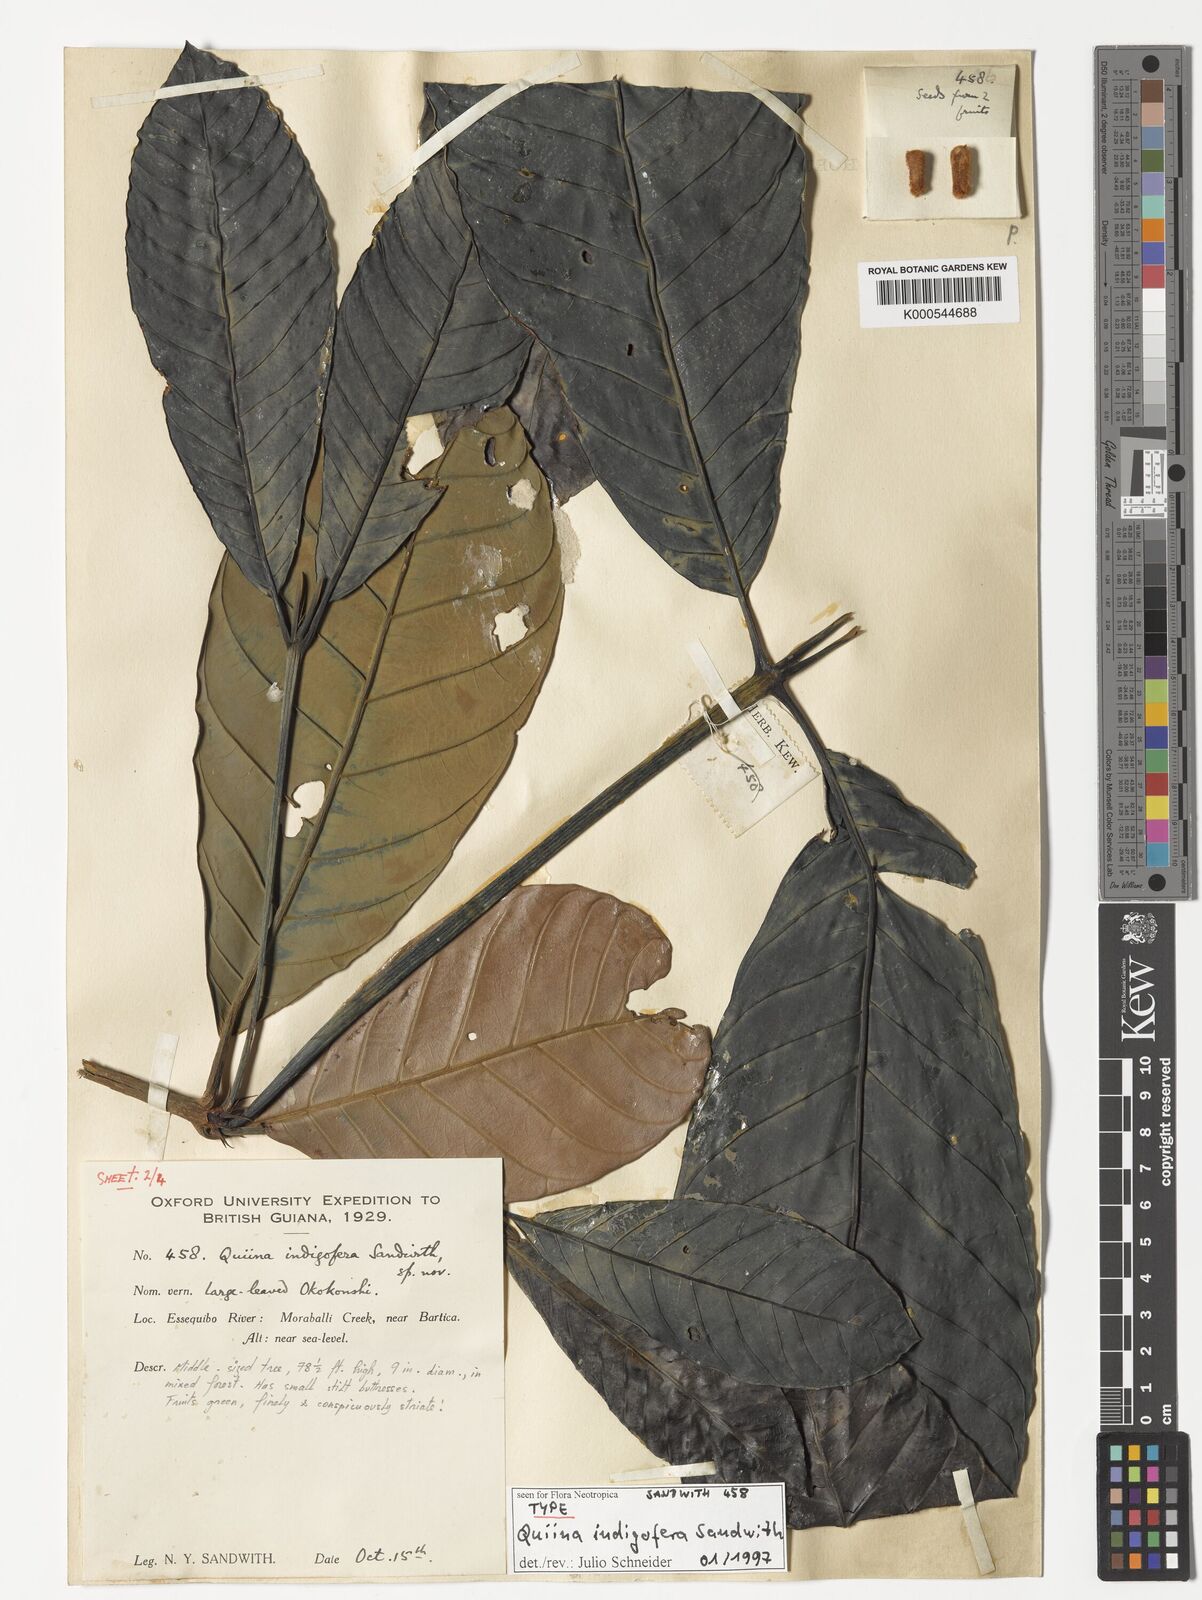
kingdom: Plantae
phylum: Tracheophyta
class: Magnoliopsida
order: Malpighiales
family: Quiinaceae
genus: Quiina
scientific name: Quiina indigofera
